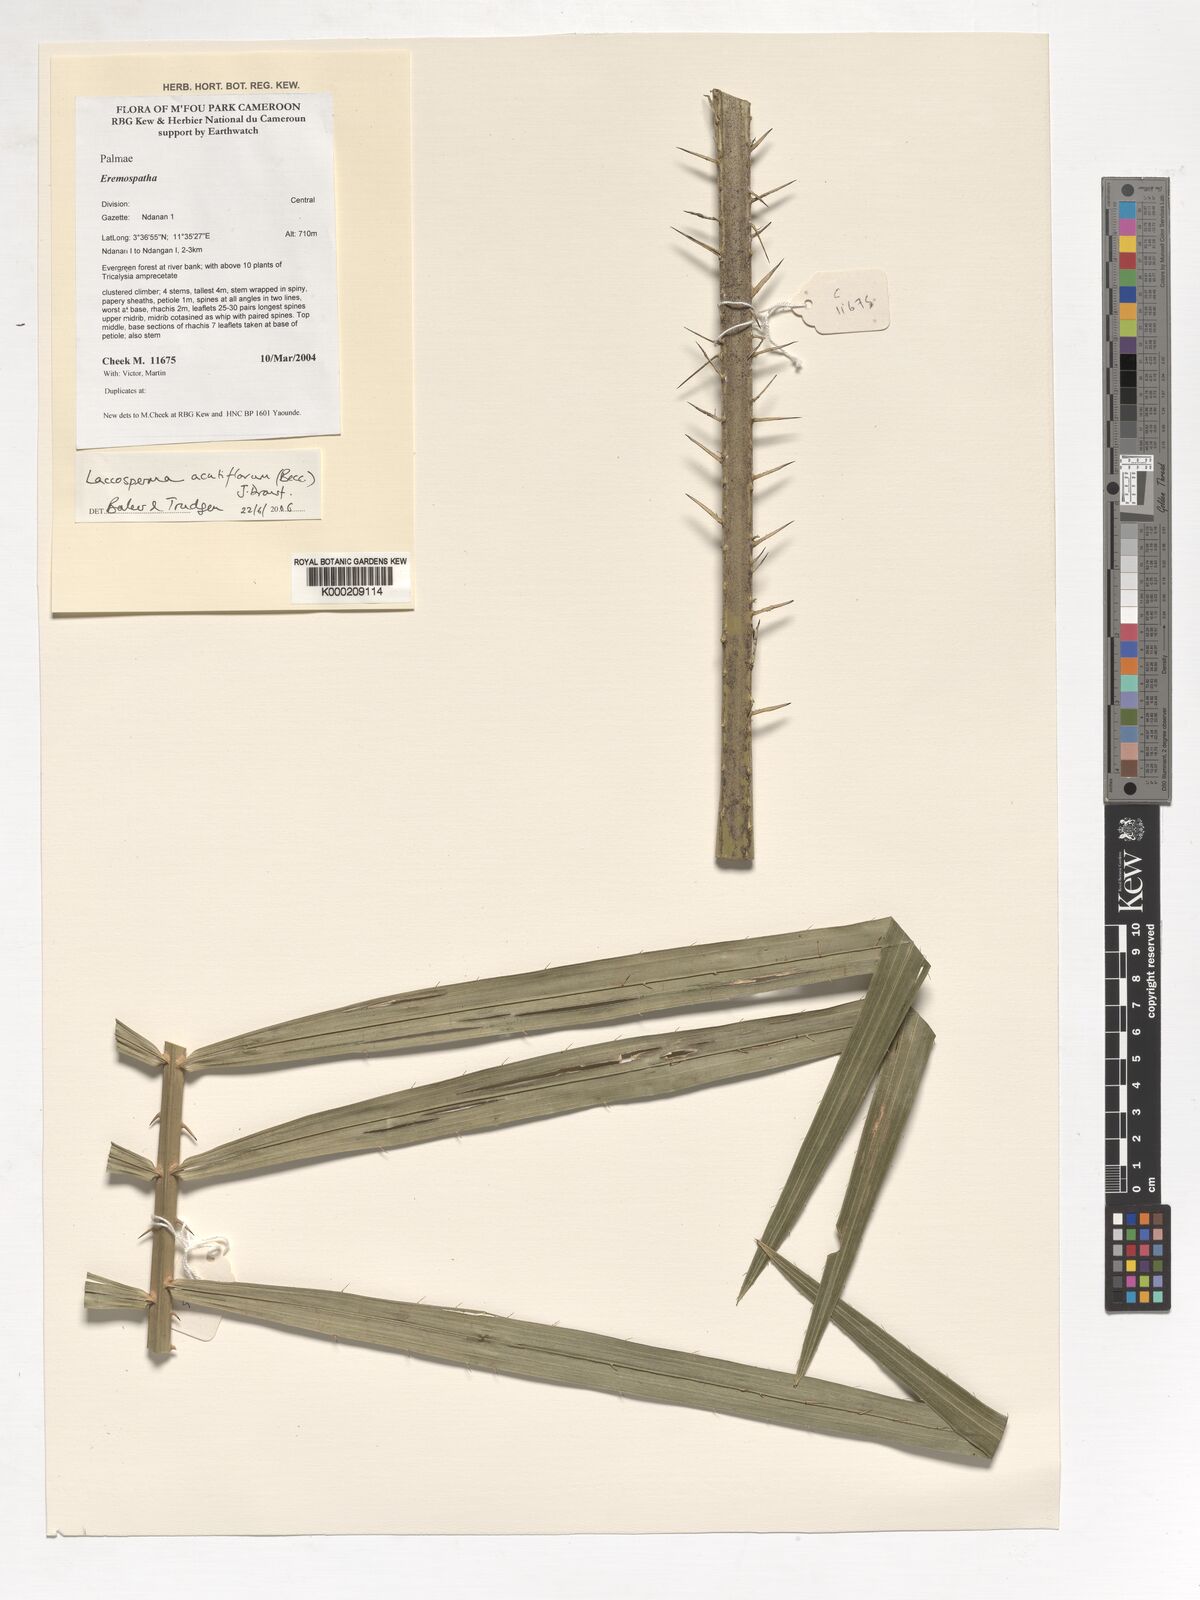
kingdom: Plantae
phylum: Tracheophyta
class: Liliopsida
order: Arecales
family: Arecaceae
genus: Laccosperma
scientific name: Laccosperma acutiflorum
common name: Rattan
